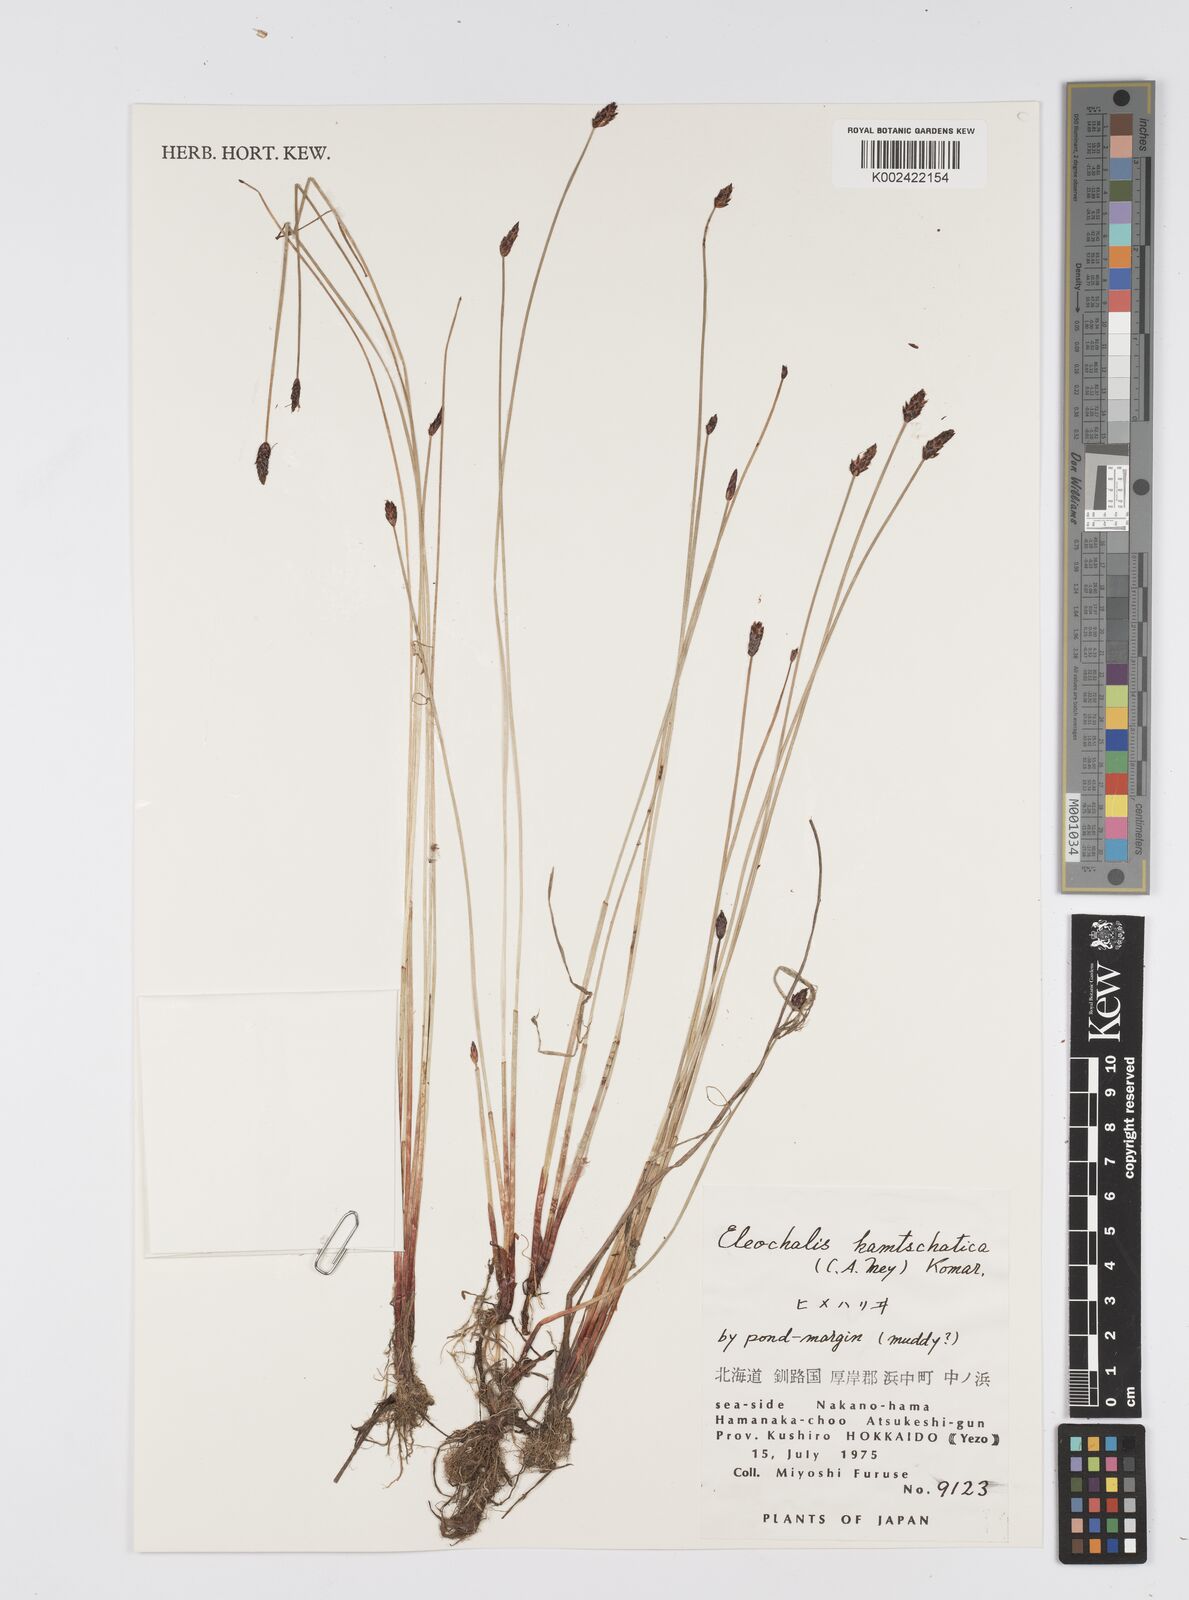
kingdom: Plantae
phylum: Tracheophyta
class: Liliopsida
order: Poales
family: Cyperaceae
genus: Eleocharis
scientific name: Eleocharis kamtschatica
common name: Kamchatka spikerush
